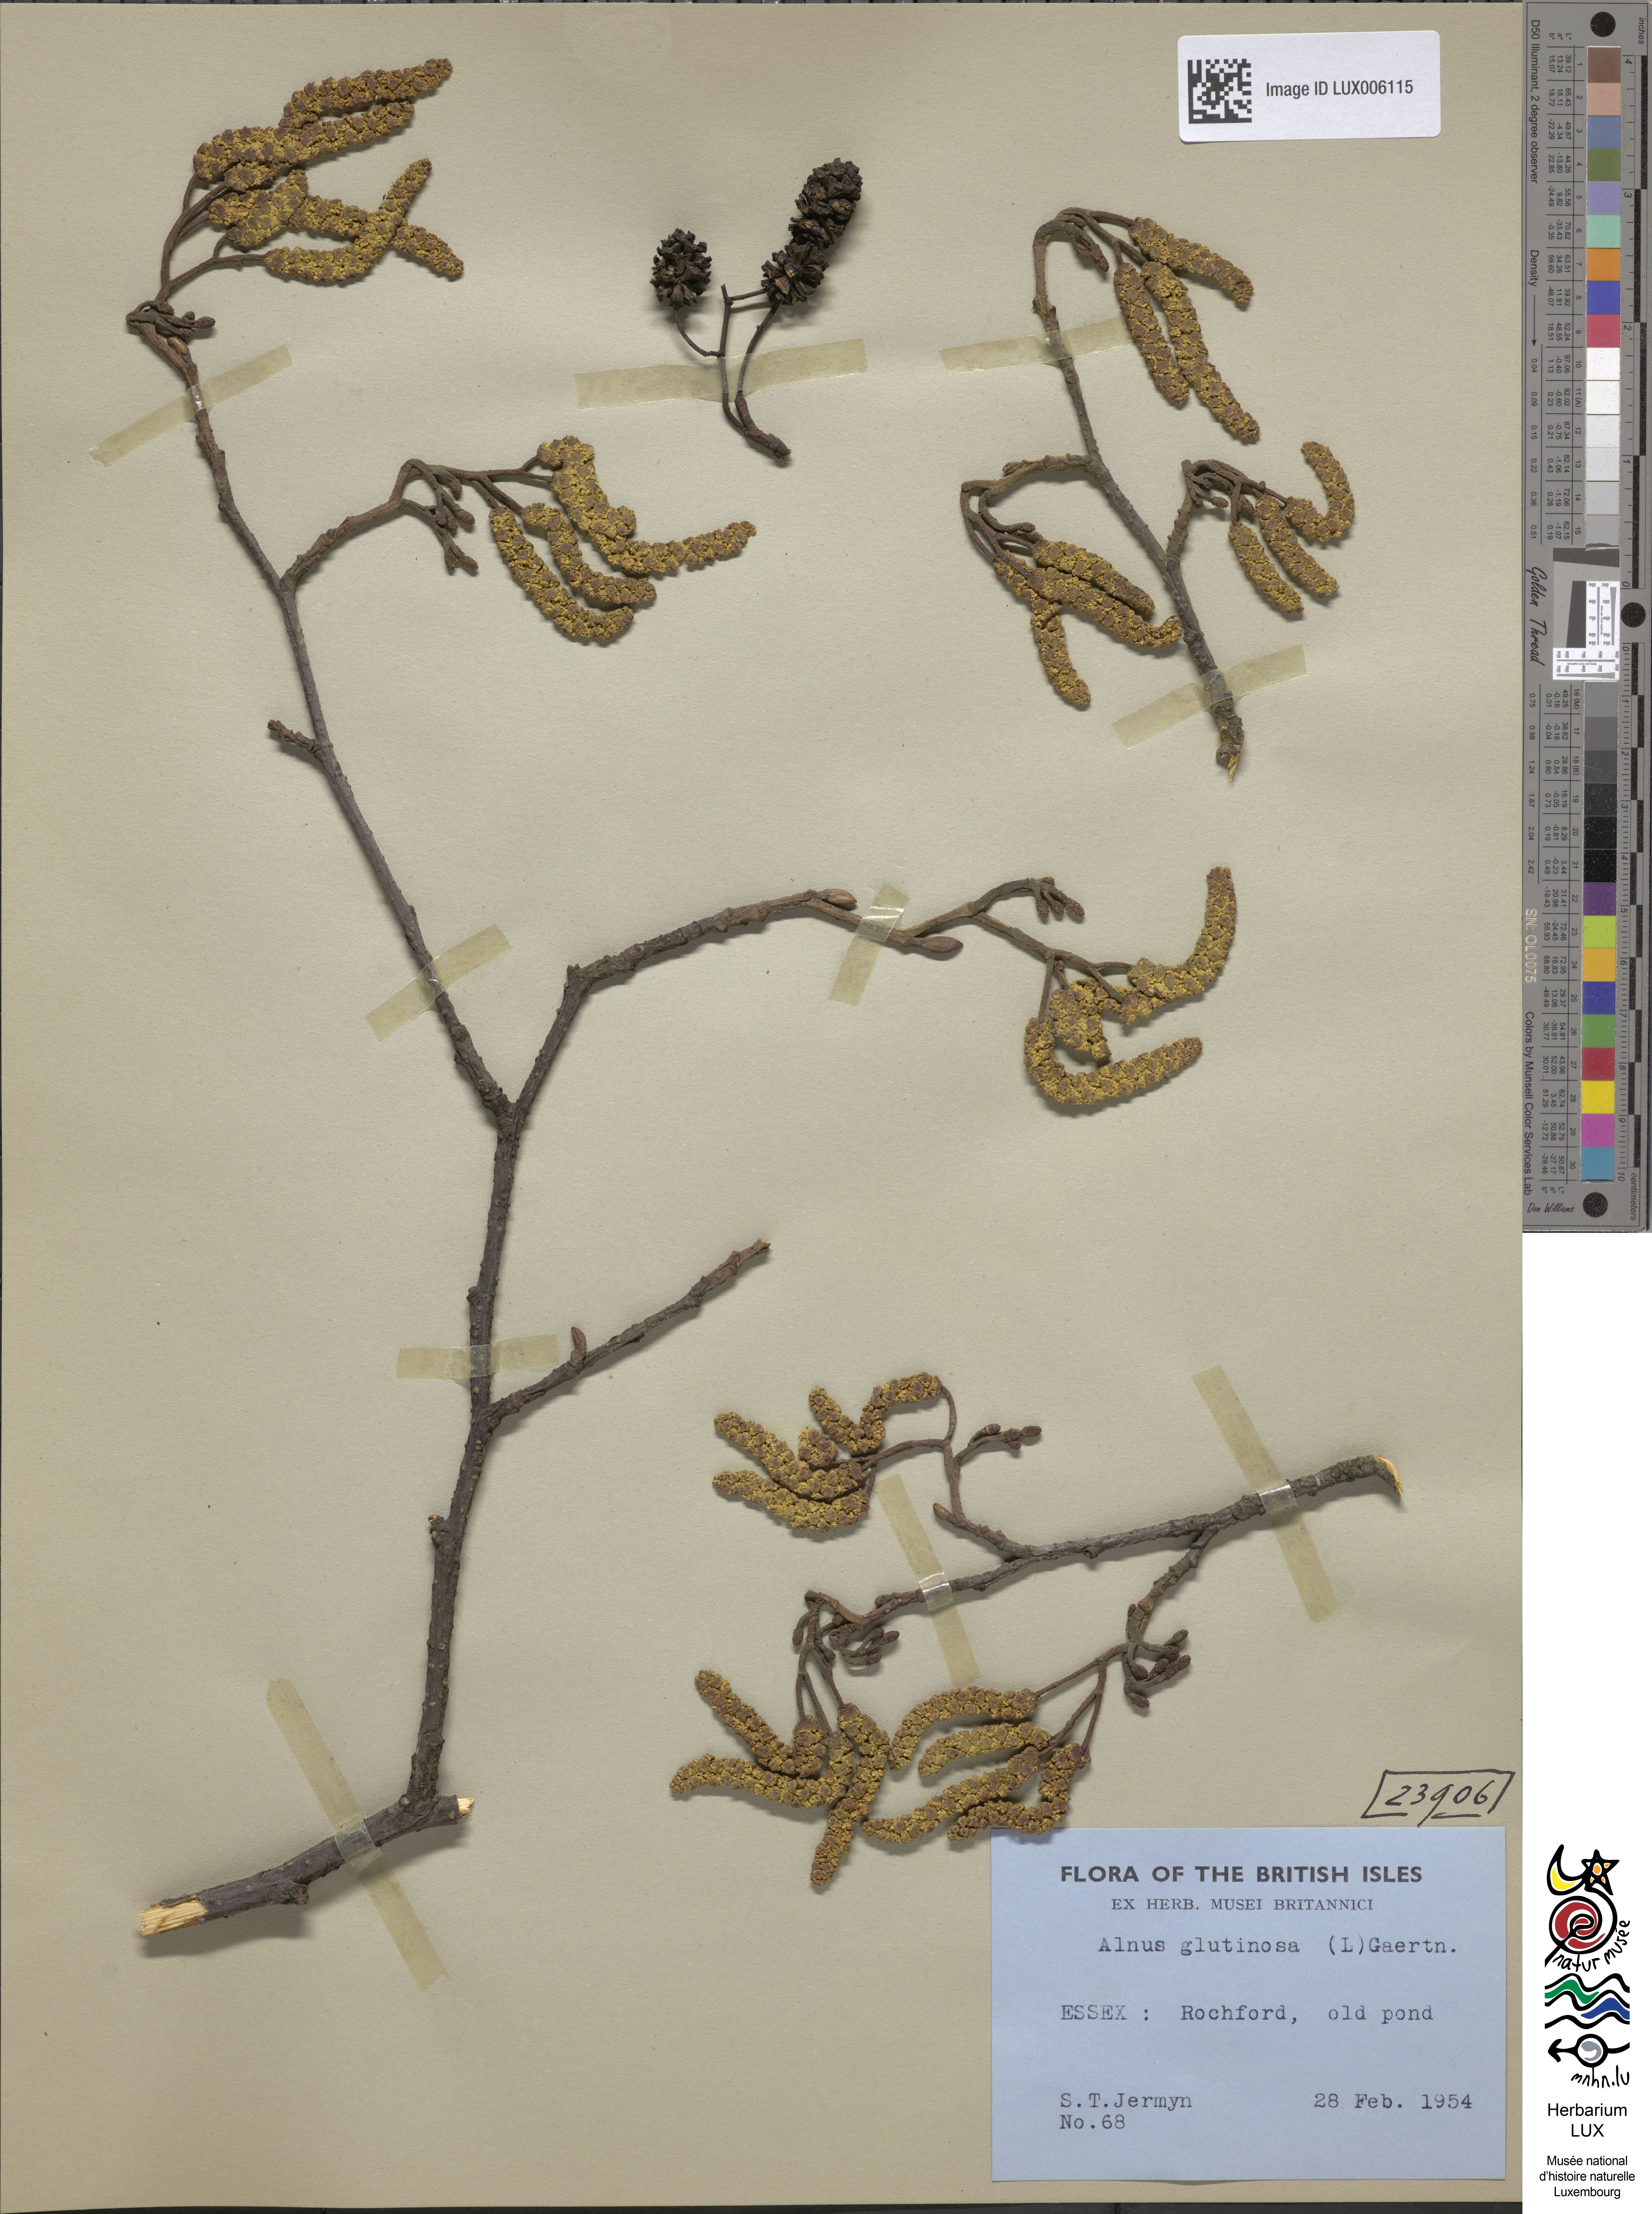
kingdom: Plantae
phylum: Tracheophyta
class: Magnoliopsida
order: Fagales
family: Betulaceae
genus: Alnus
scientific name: Alnus glutinosa
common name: Black alder
